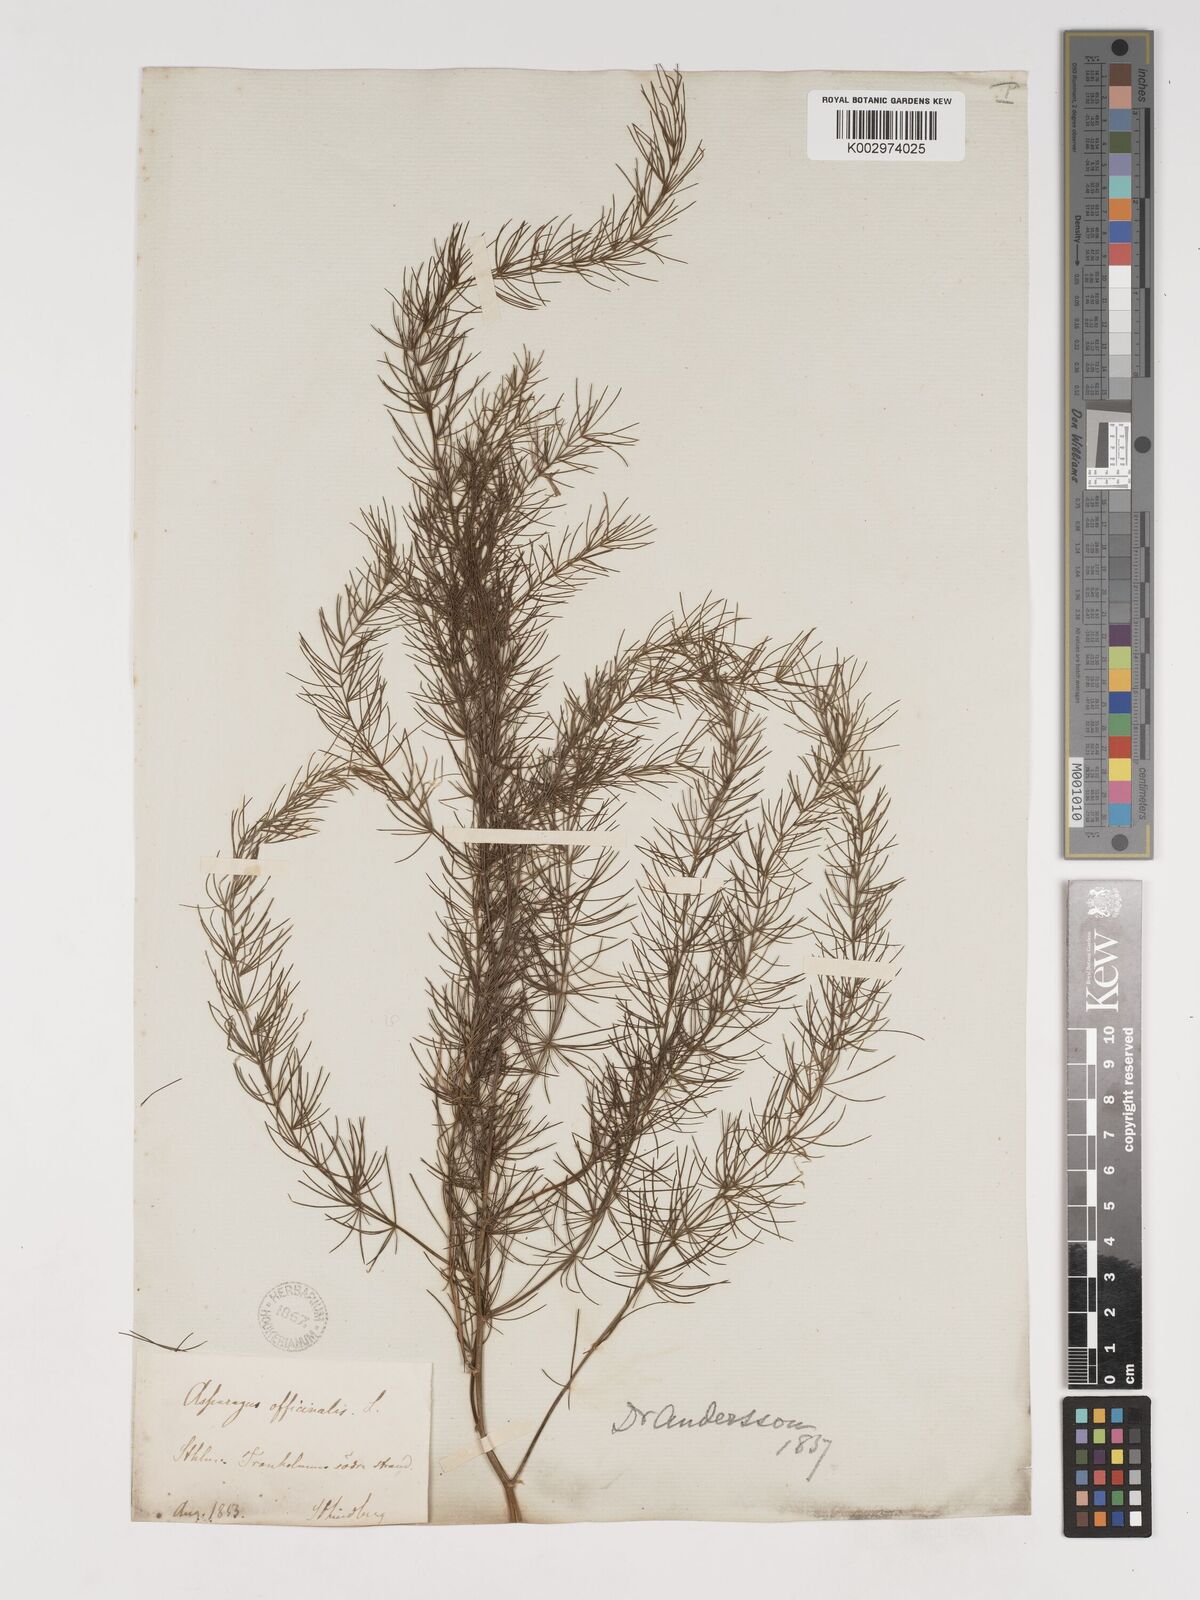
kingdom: Plantae
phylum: Tracheophyta
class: Liliopsida
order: Asparagales
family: Asparagaceae
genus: Asparagus
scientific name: Asparagus
